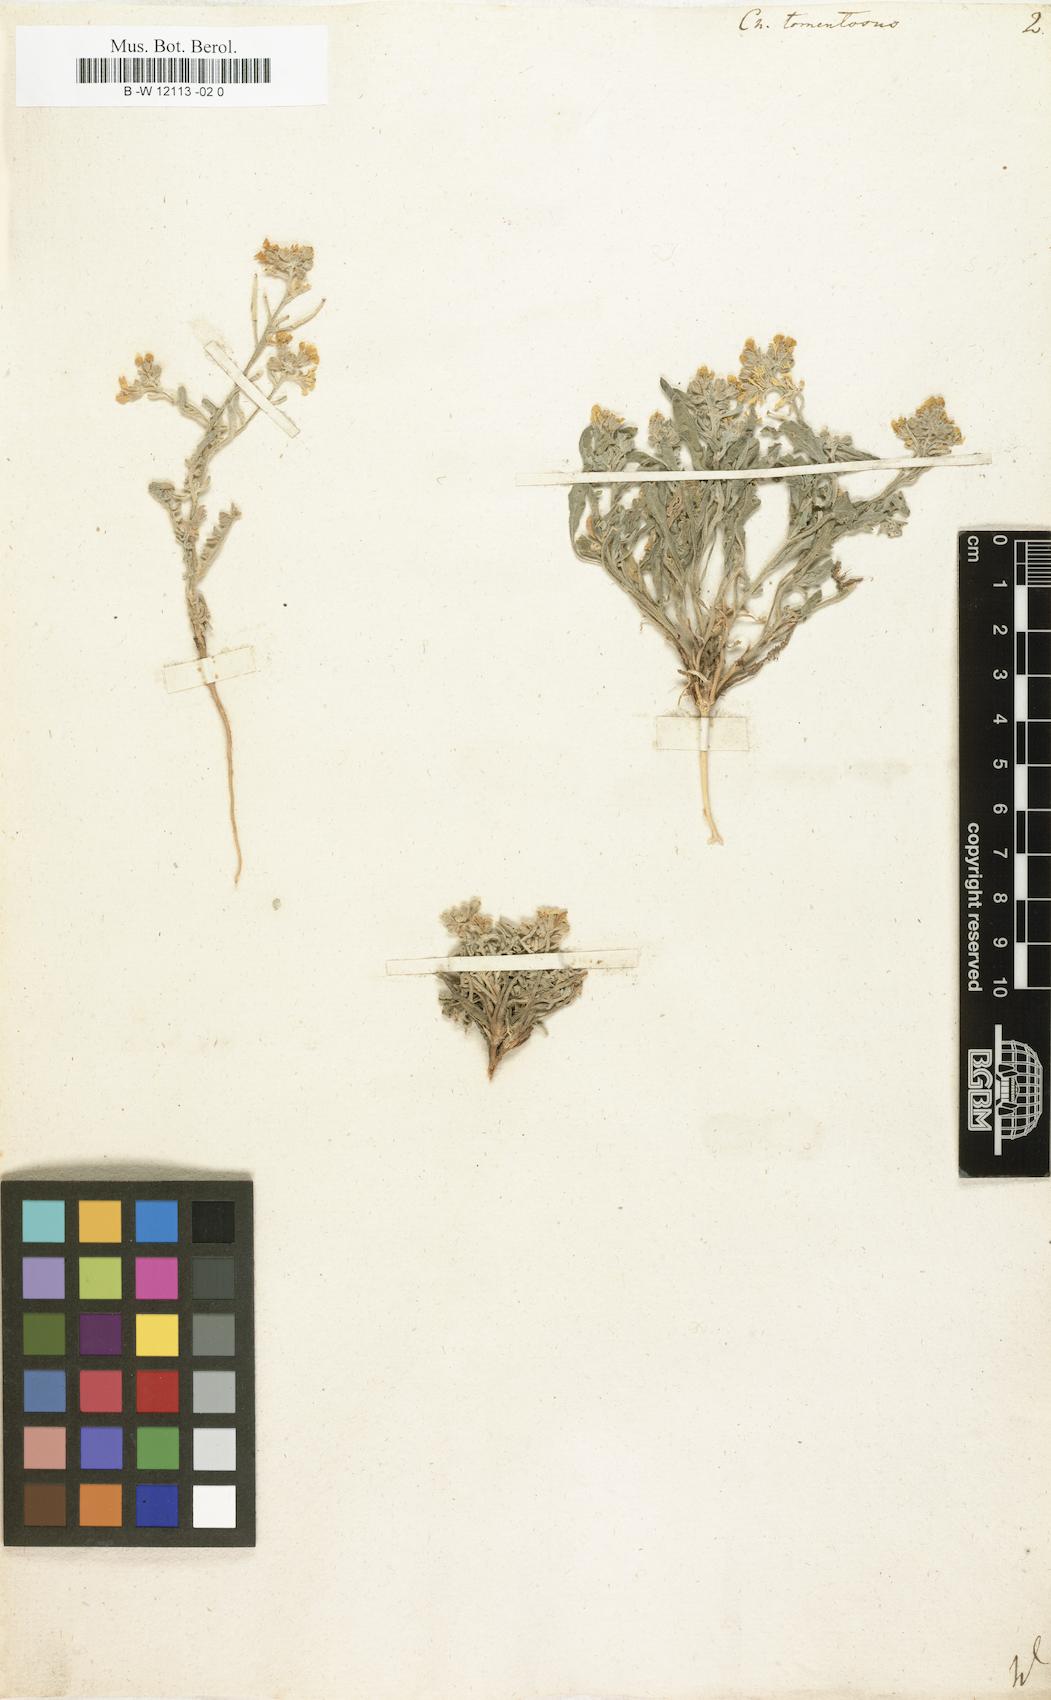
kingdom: Plantae
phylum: Tracheophyta
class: Magnoliopsida
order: Brassicales
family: Brassicaceae
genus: Sterigmostemum
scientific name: Sterigmostemum caspicum
